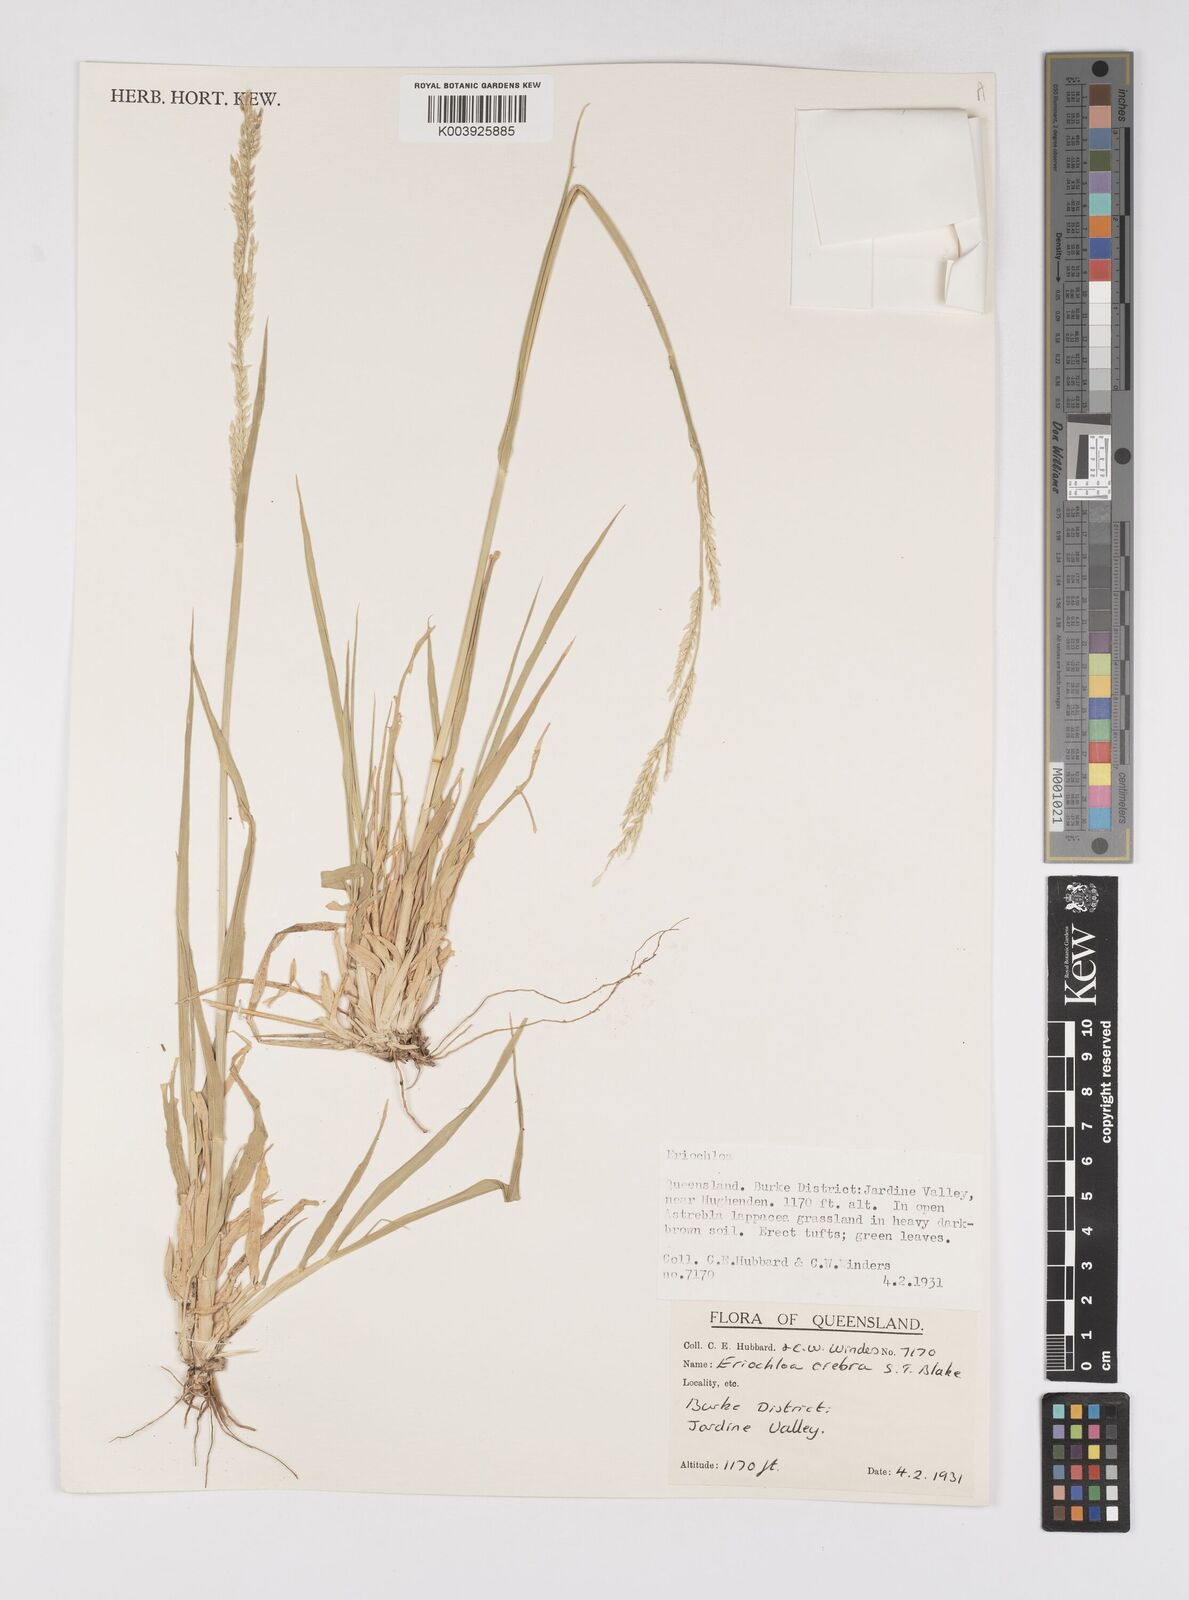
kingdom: Plantae
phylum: Tracheophyta
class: Liliopsida
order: Poales
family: Poaceae
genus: Eriochloa
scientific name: Eriochloa crebra
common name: Cup grass
